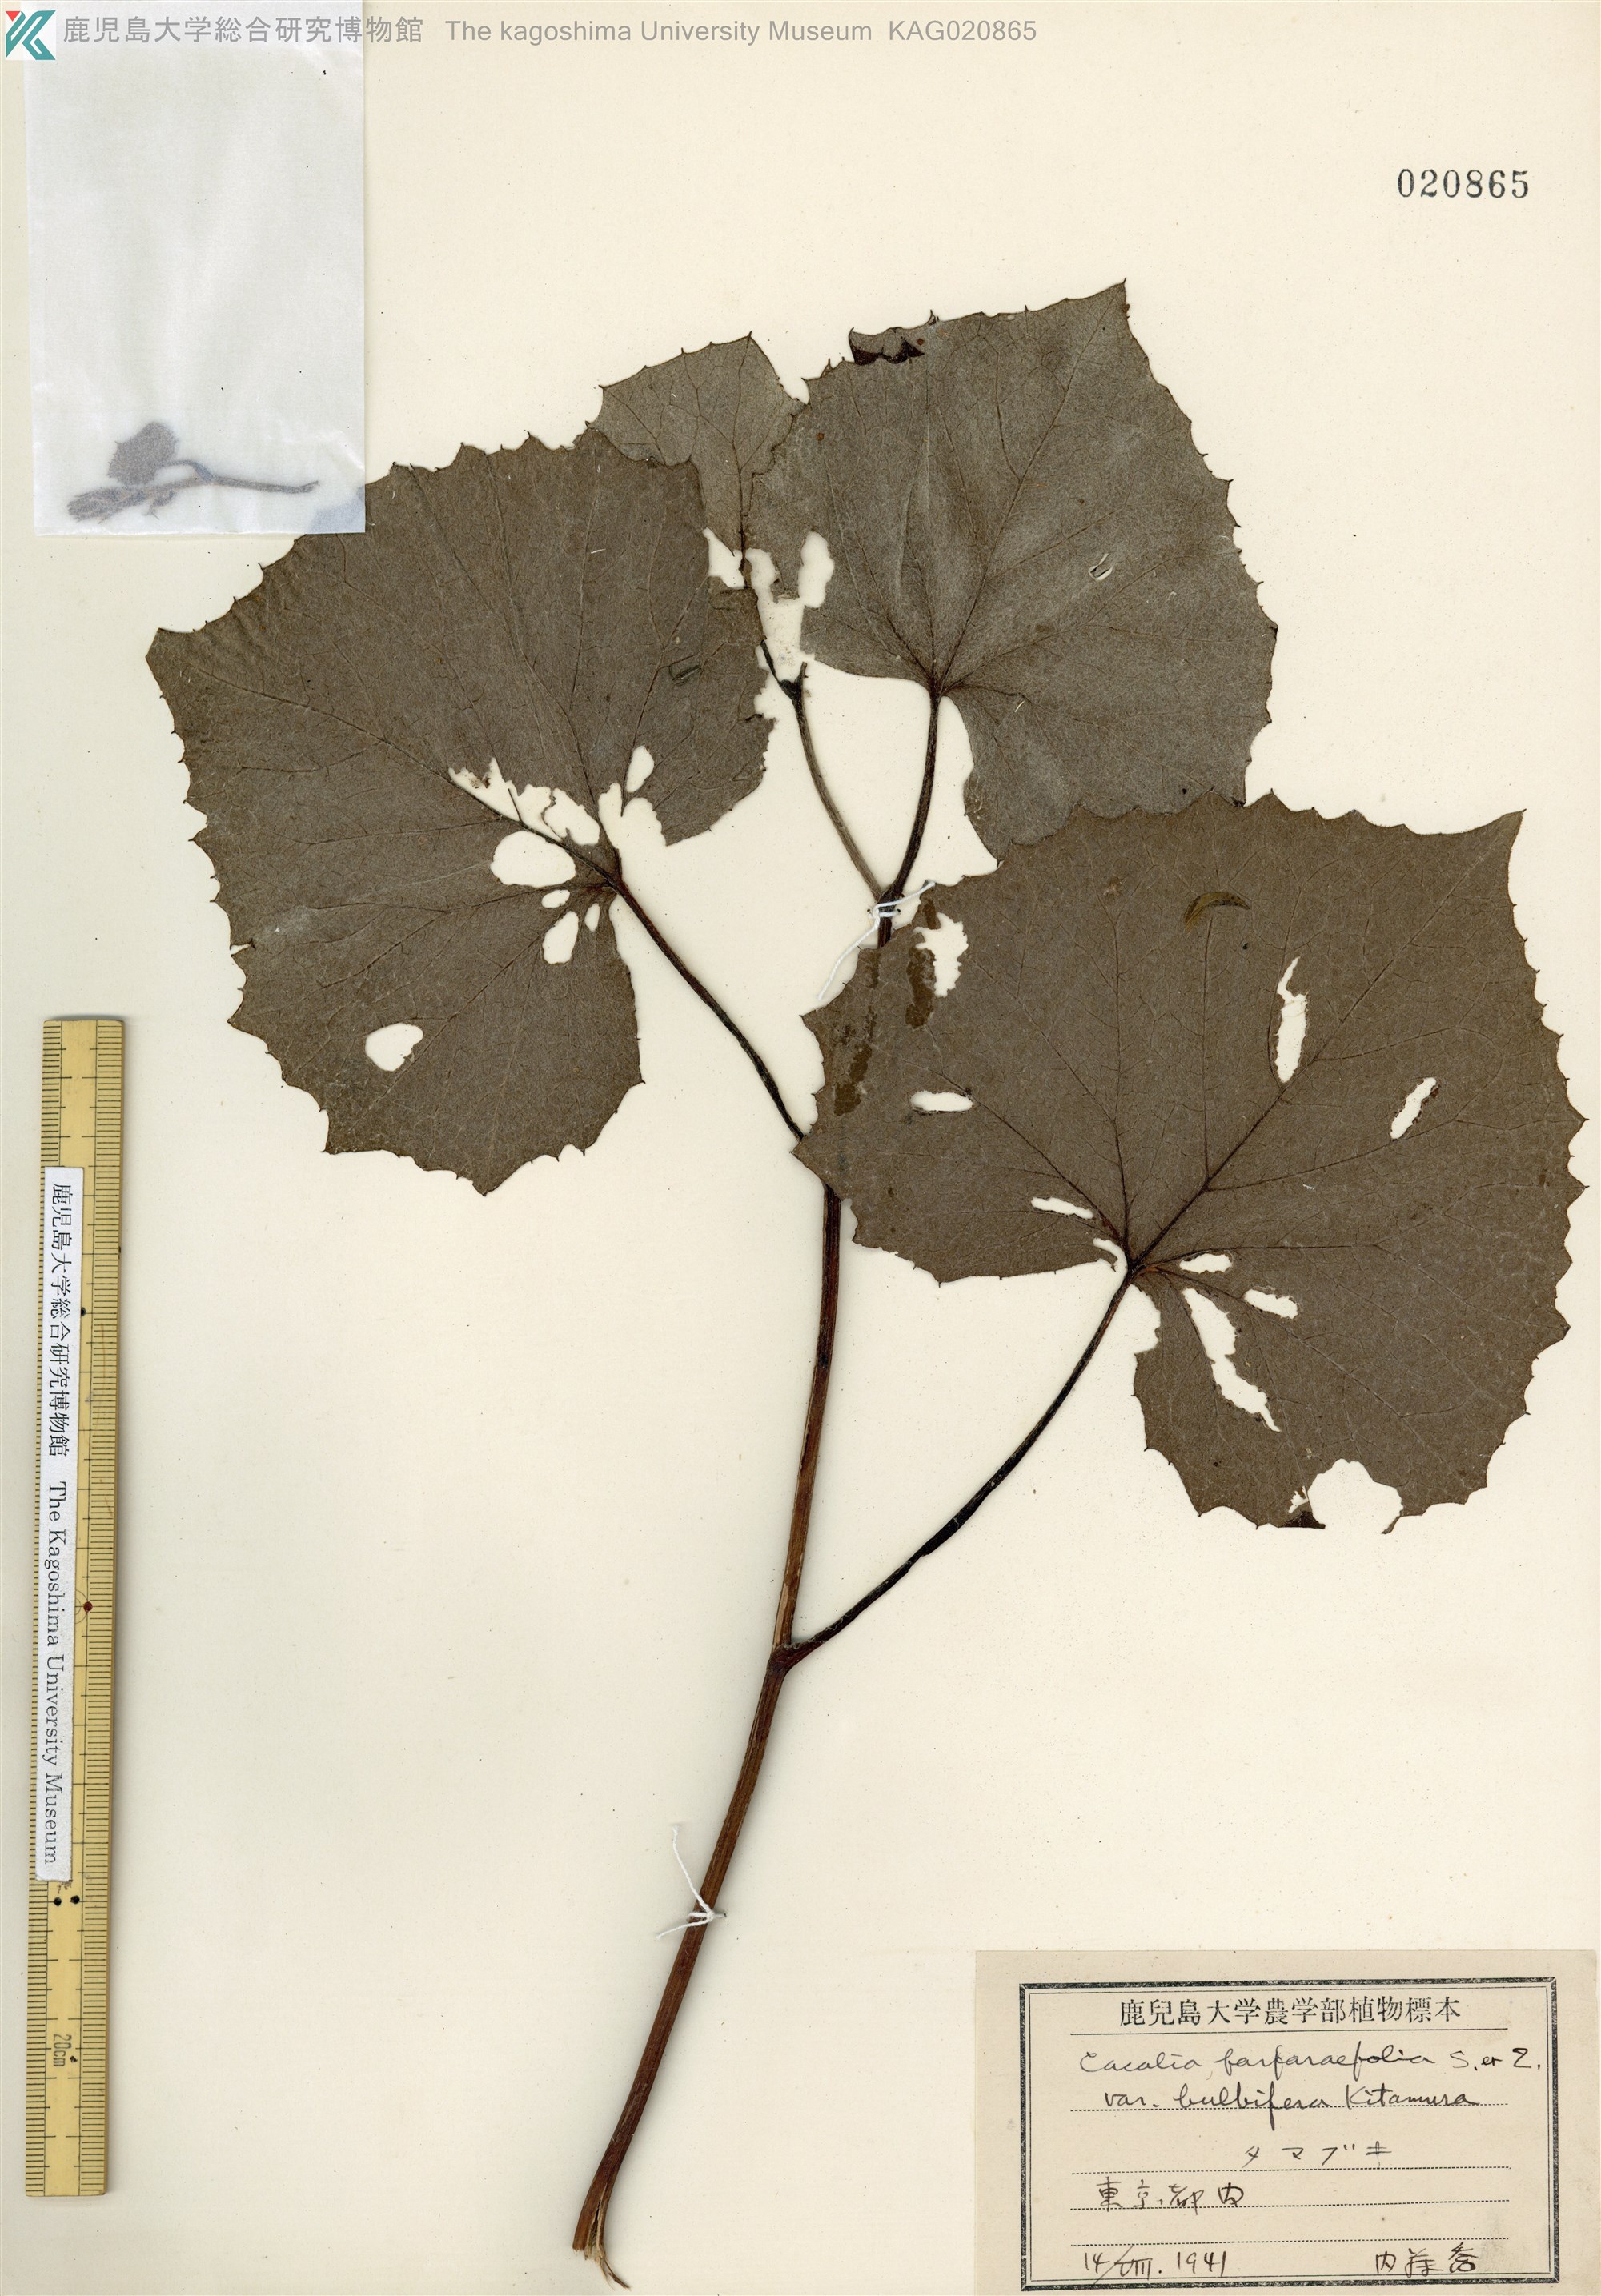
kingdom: Plantae
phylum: Tracheophyta
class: Magnoliopsida
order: Asterales
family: Asteraceae
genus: Parasenecio
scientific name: Parasenecio farfarifolius
